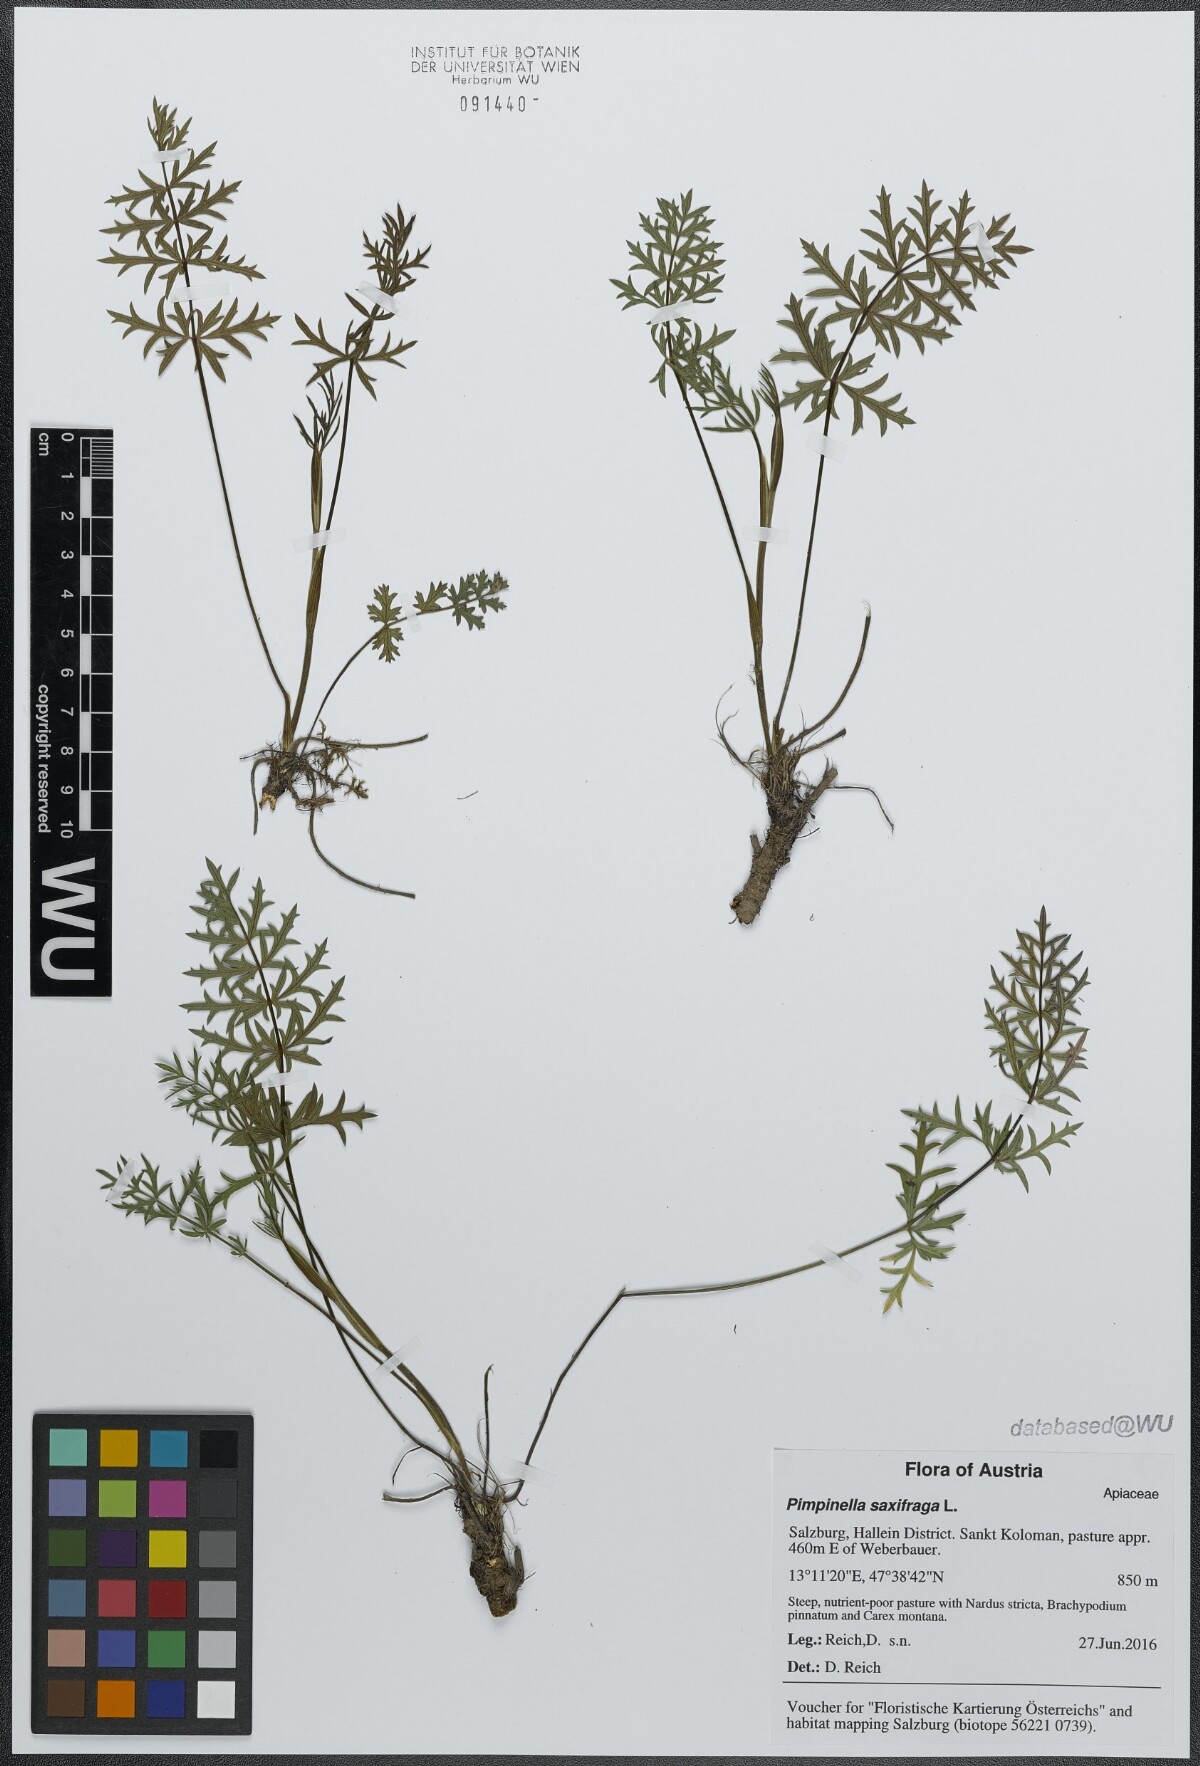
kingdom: Plantae
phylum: Tracheophyta
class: Magnoliopsida
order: Apiales
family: Apiaceae
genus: Pimpinella
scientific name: Pimpinella saxifraga
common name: Burnet-saxifrage
